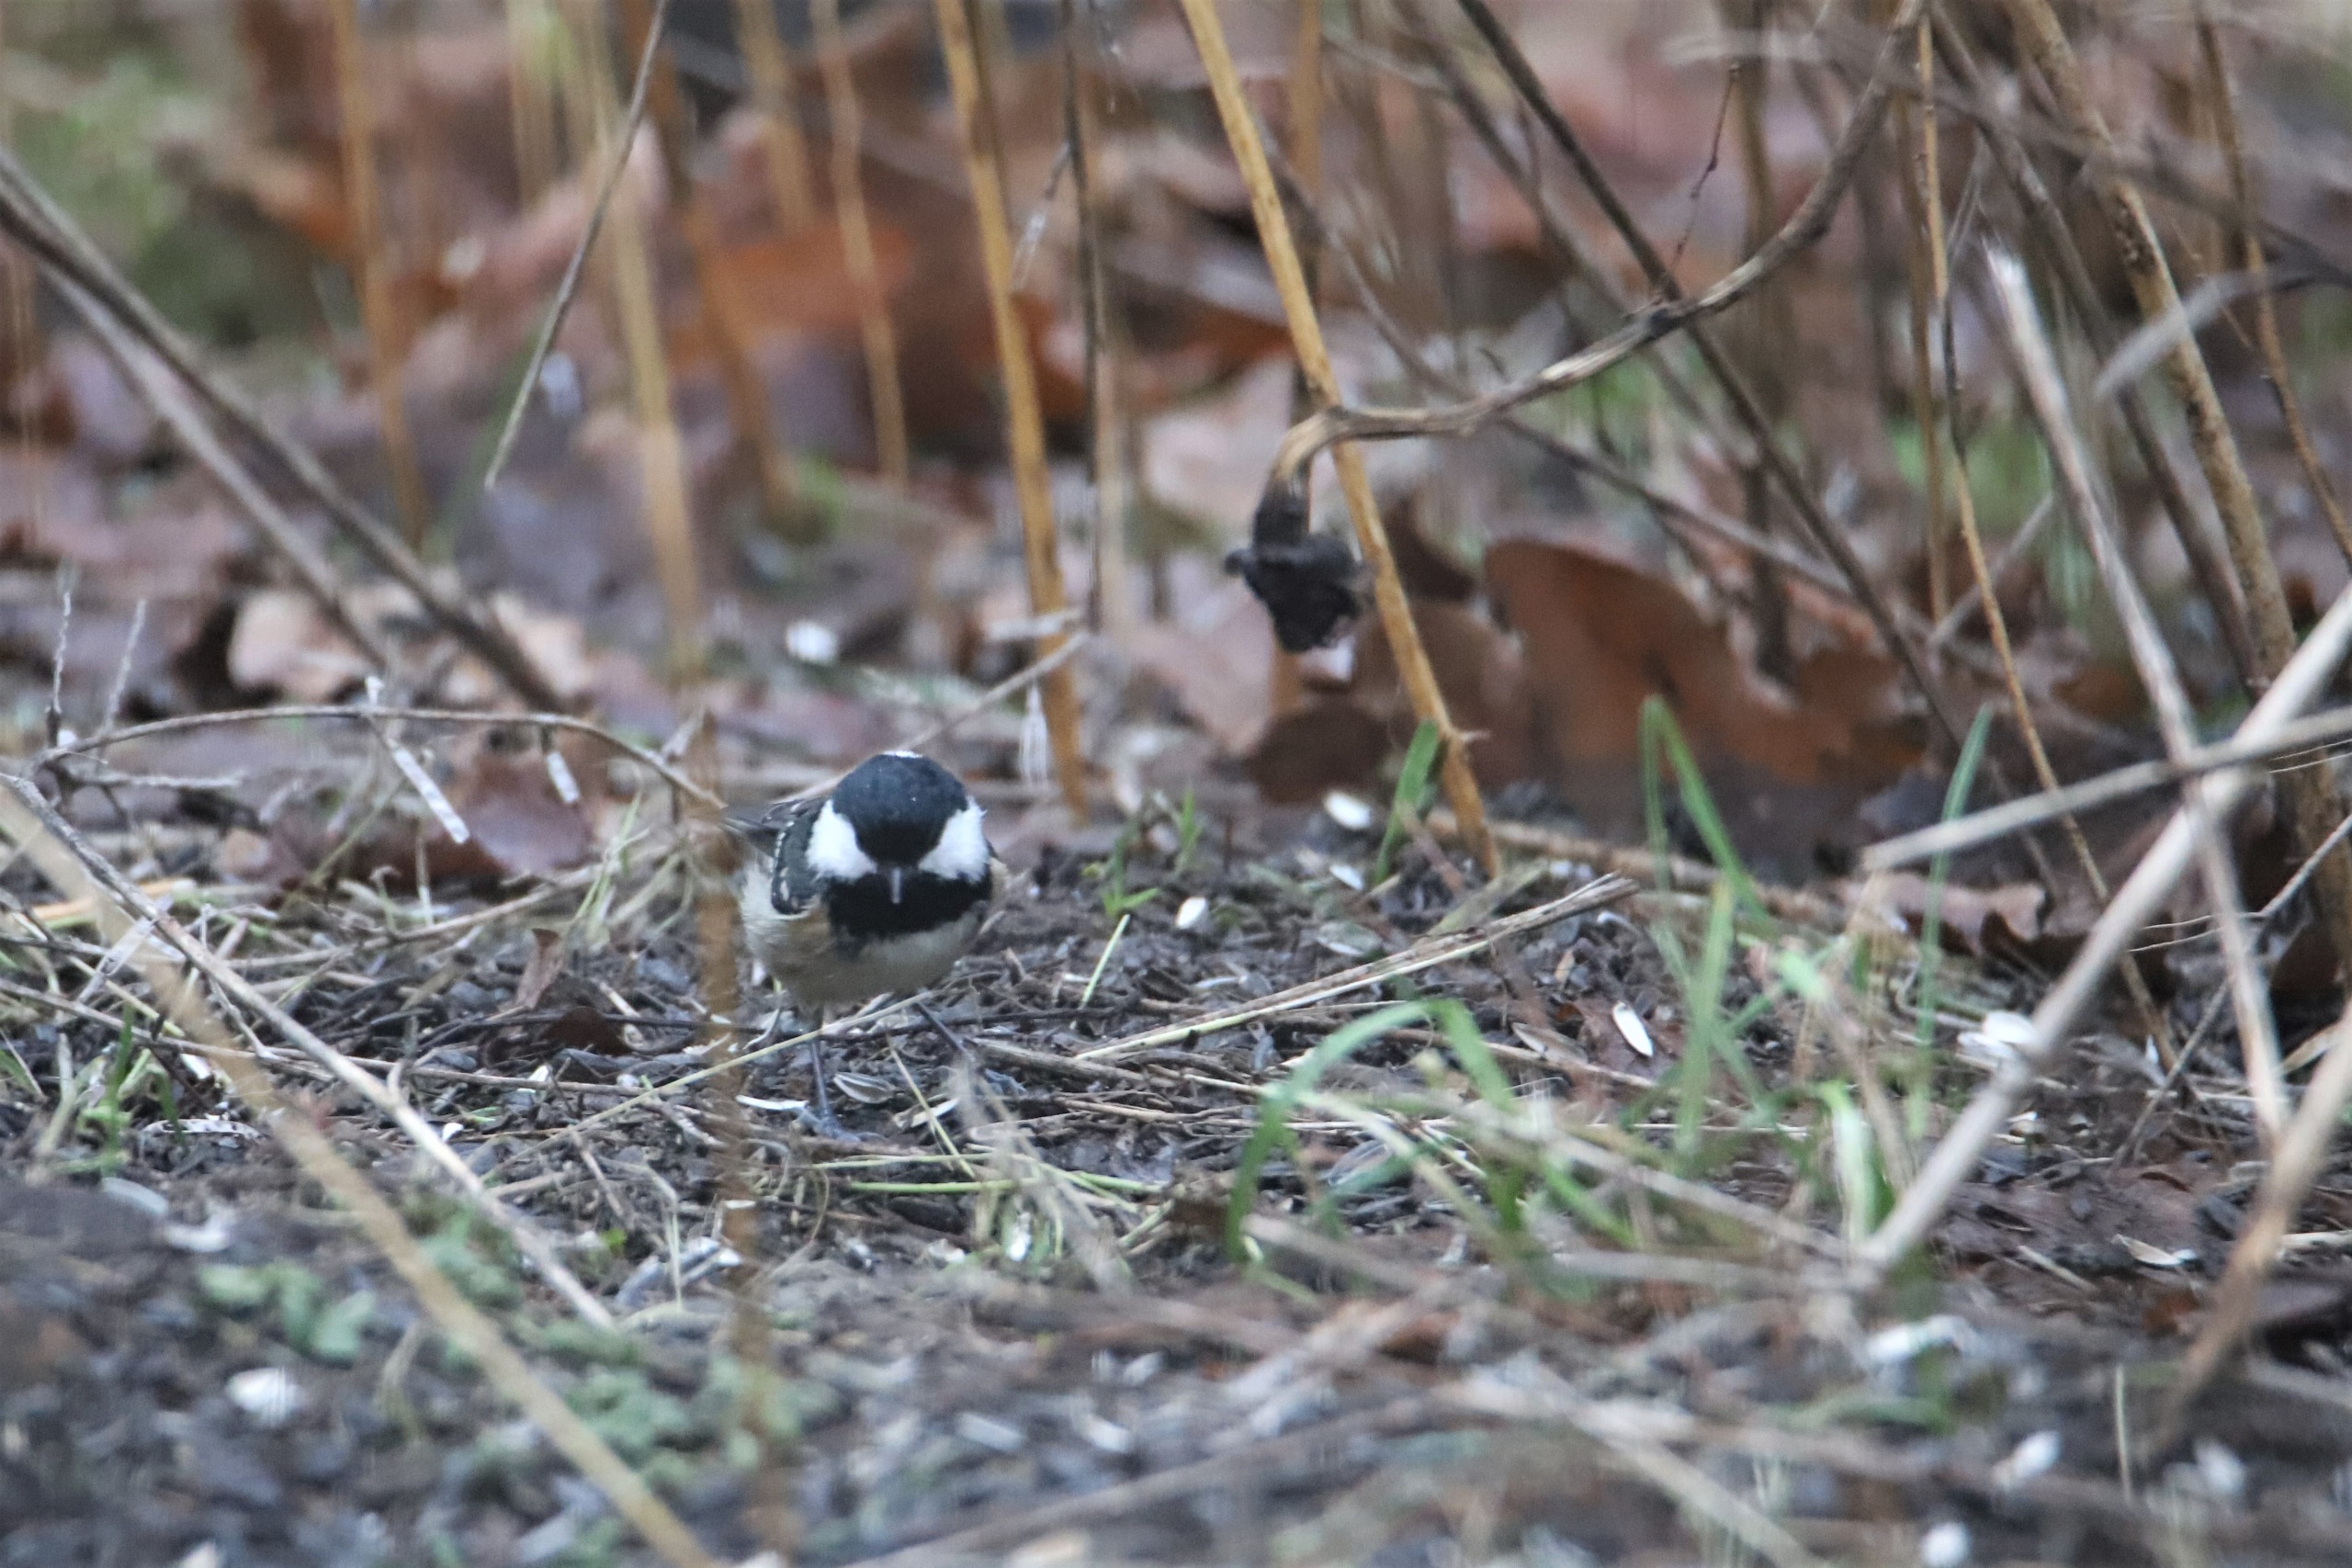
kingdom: Animalia
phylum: Chordata
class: Aves
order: Passeriformes
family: Paridae
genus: Periparus
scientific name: Periparus ater
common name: Sortmejse
